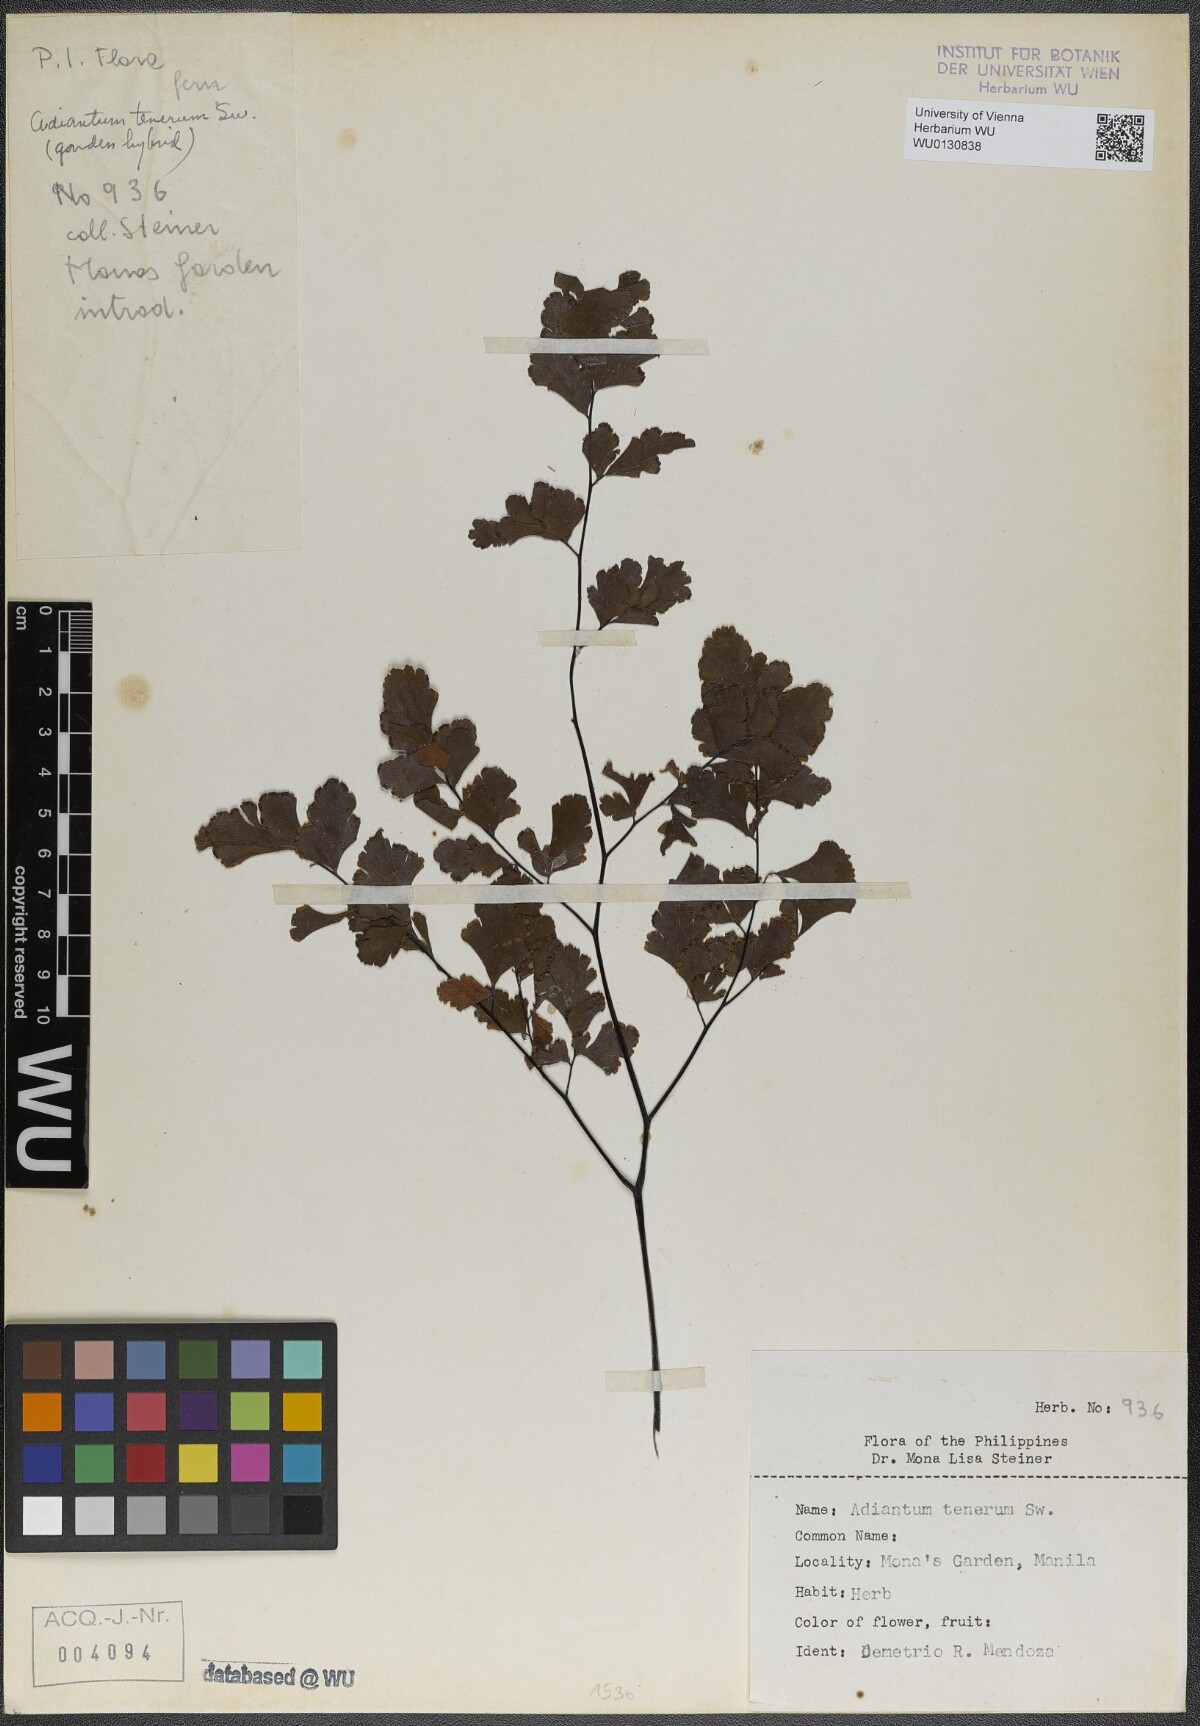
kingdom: Plantae
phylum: Tracheophyta
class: Polypodiopsida
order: Polypodiales
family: Pteridaceae
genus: Adiantum
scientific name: Adiantum tenerum
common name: Fan maidenhair
